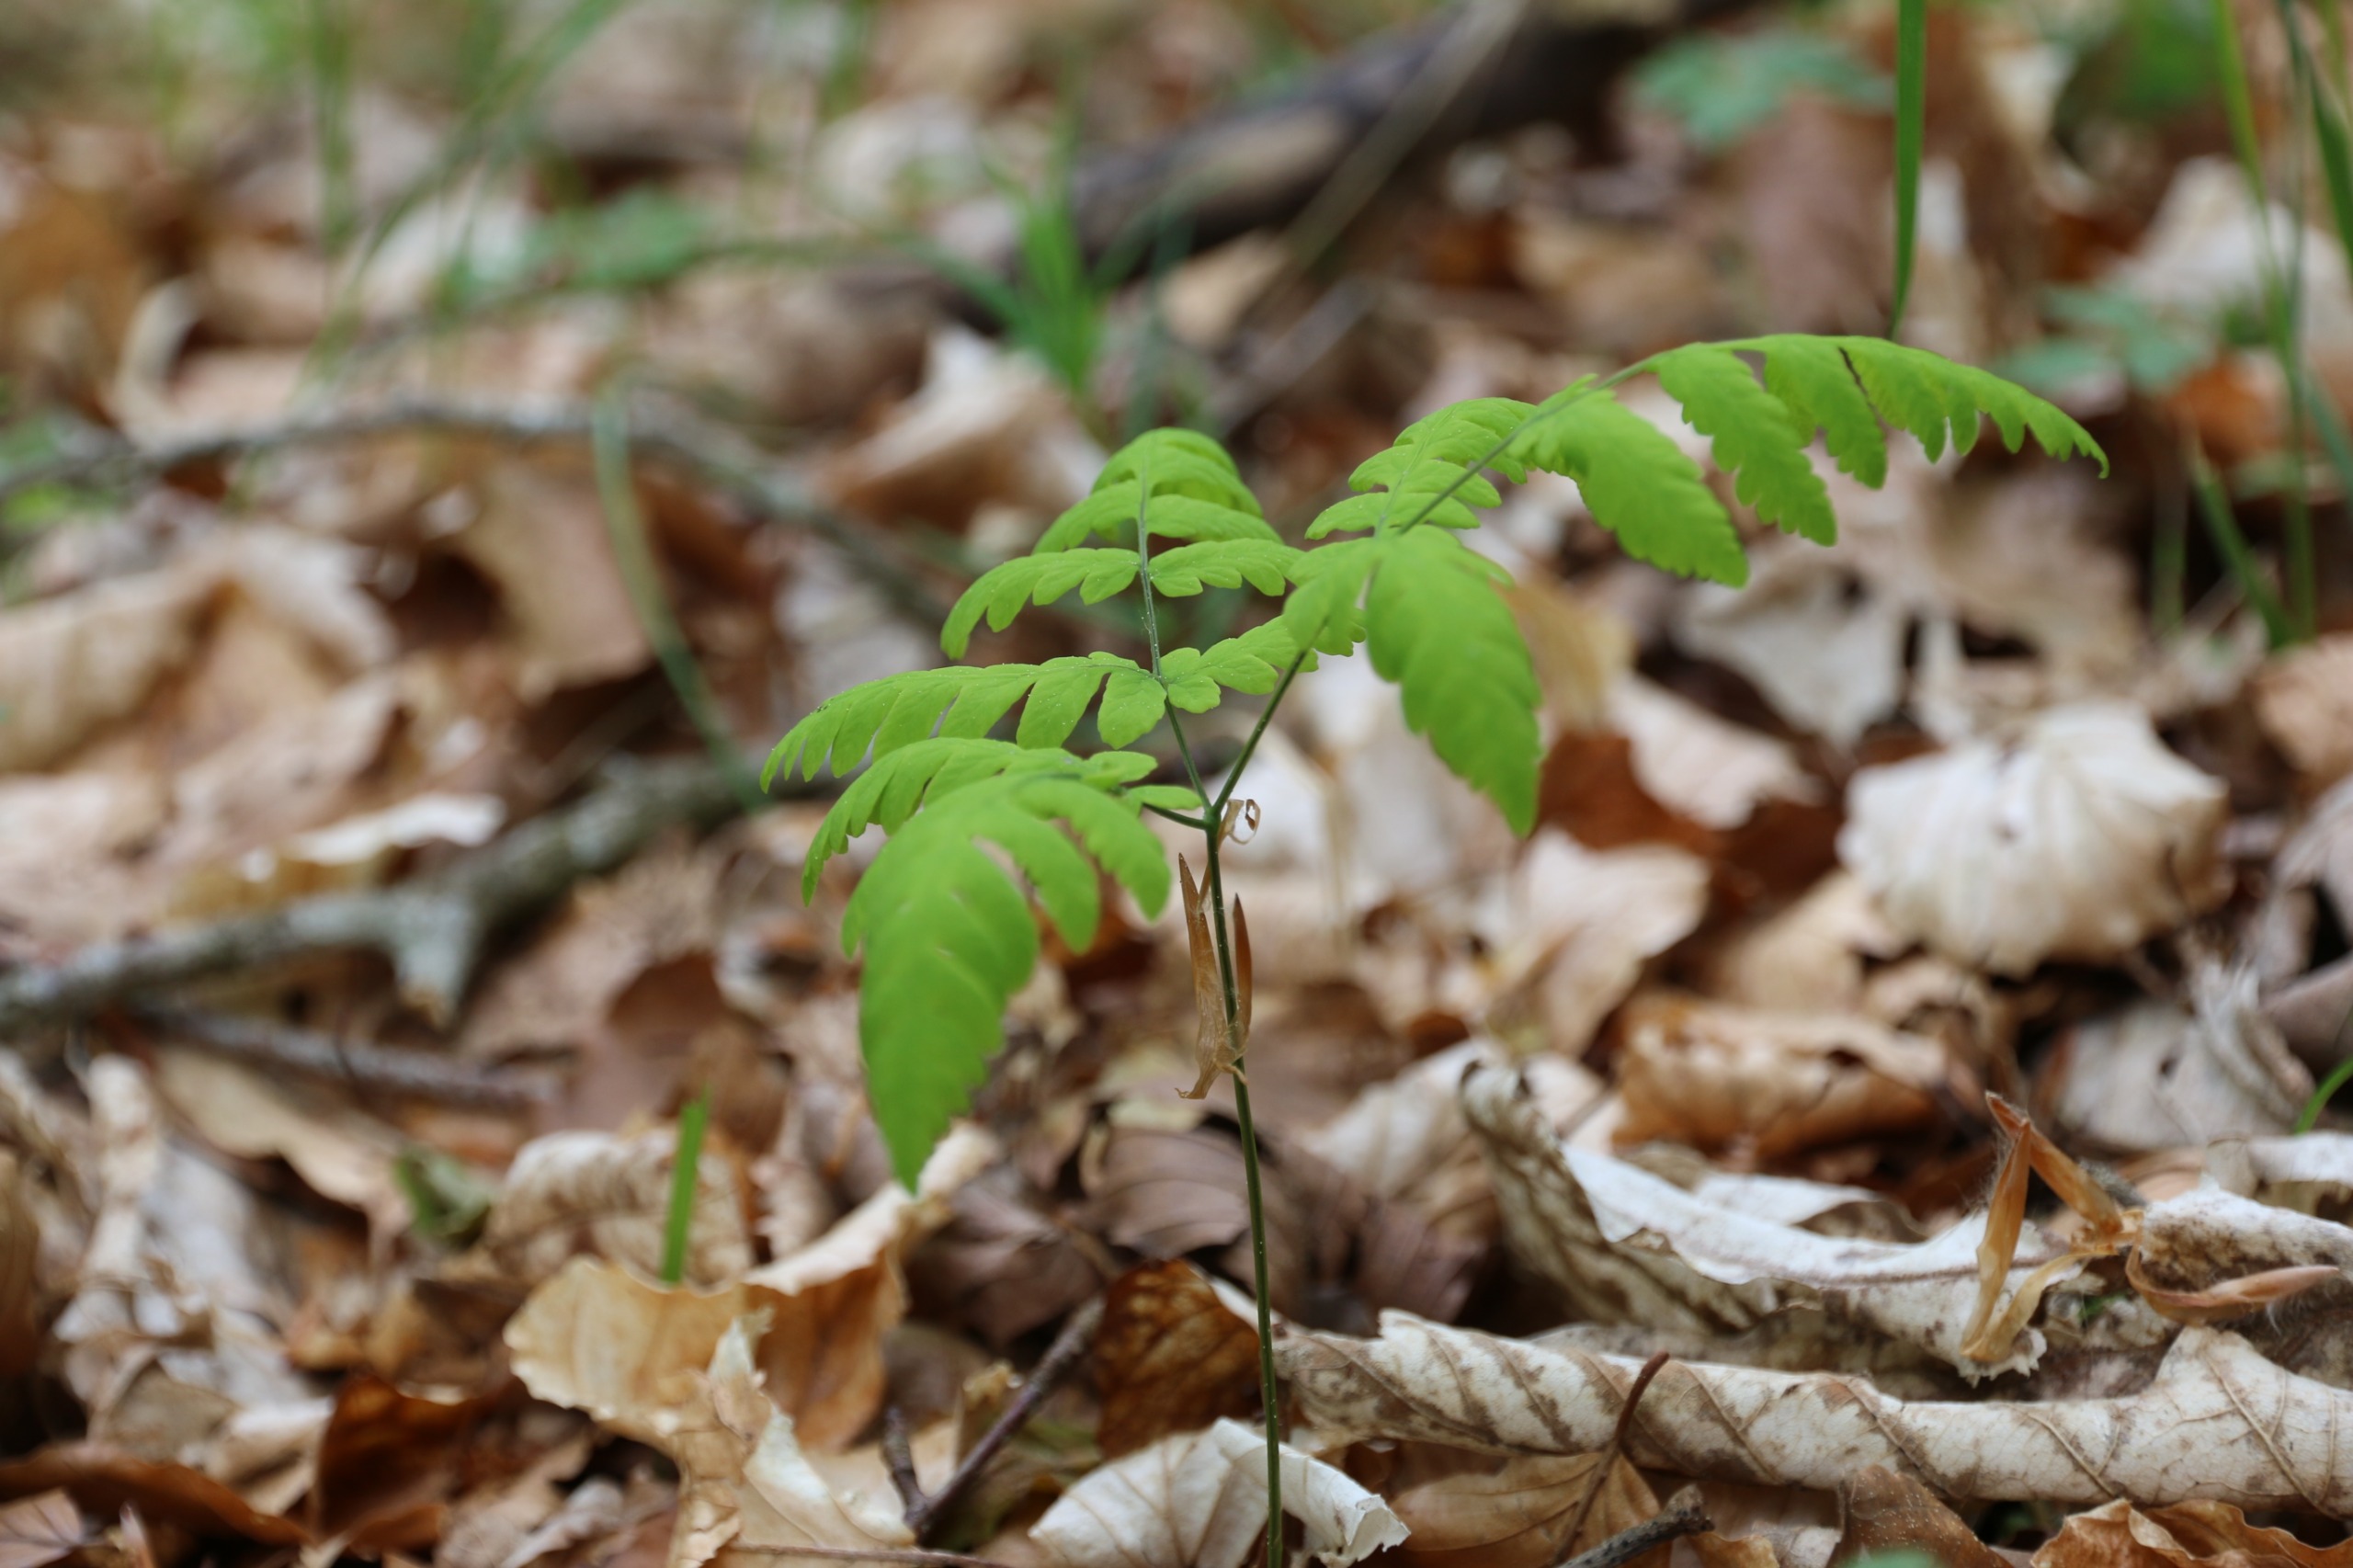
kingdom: Plantae
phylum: Tracheophyta
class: Polypodiopsida
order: Polypodiales
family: Cystopteridaceae
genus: Gymnocarpium
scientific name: Gymnocarpium dryopteris
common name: Tredelt egebregne
